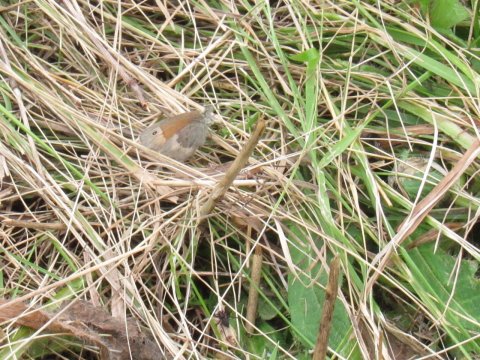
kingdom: Animalia
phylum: Arthropoda
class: Insecta
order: Lepidoptera
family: Nymphalidae
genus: Coenonympha
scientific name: Coenonympha tullia
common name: Large Heath
